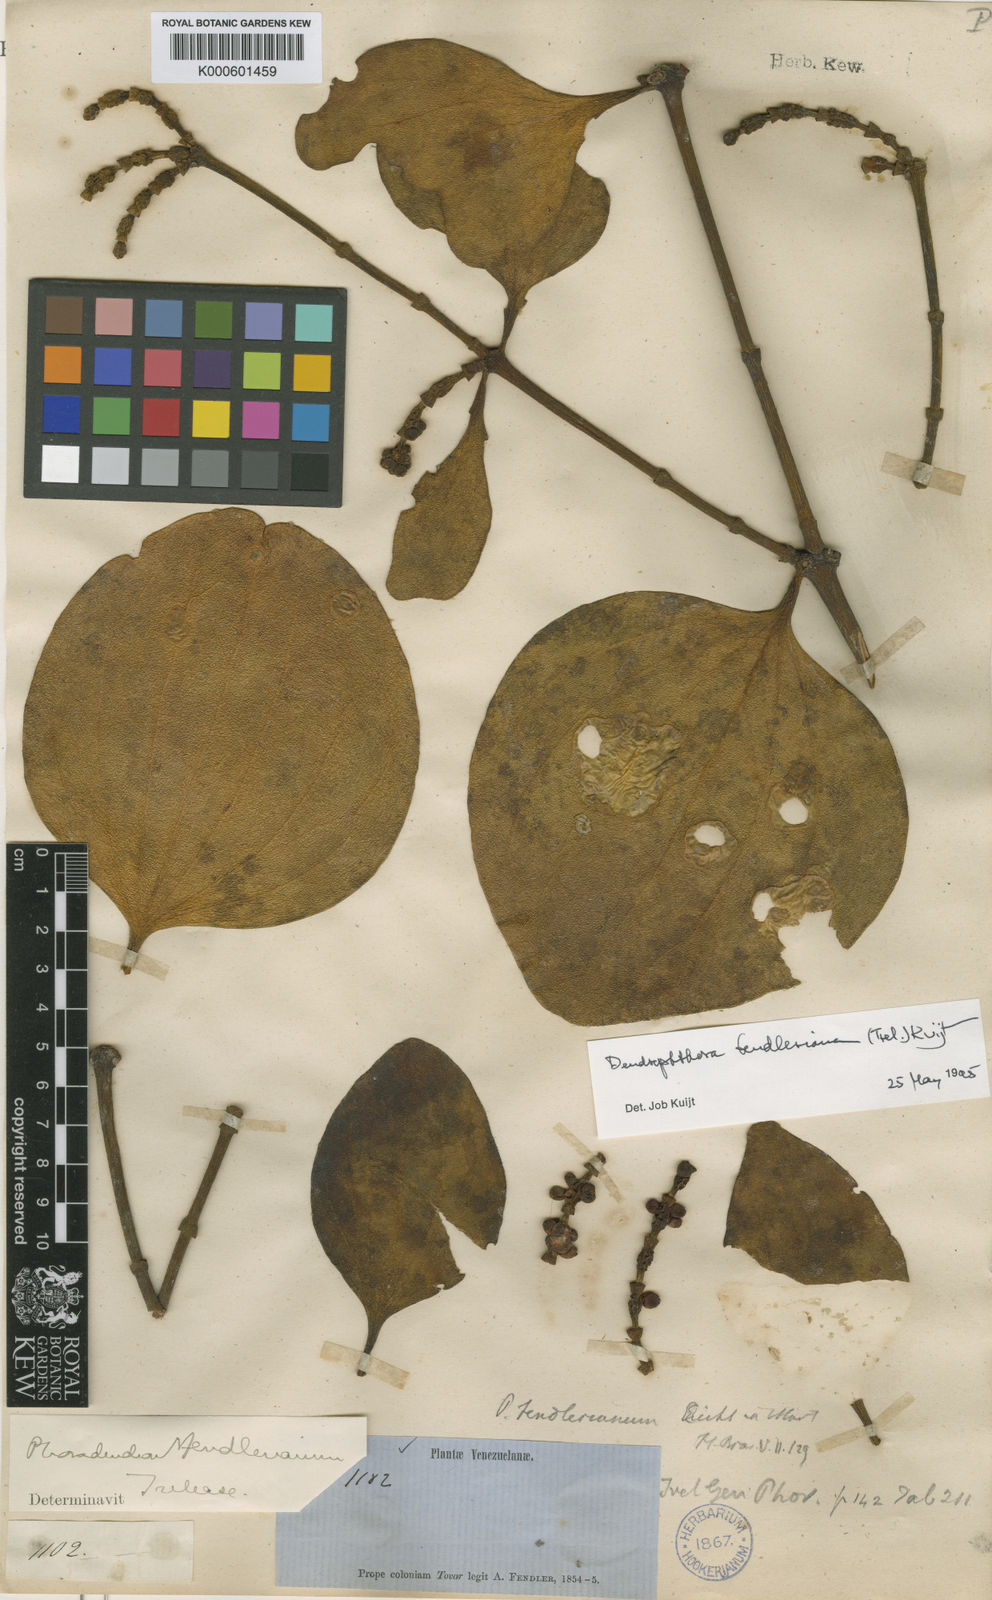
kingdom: Plantae
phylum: Tracheophyta
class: Magnoliopsida
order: Santalales
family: Viscaceae
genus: Dendrophthora
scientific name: Dendrophthora fendleriana
